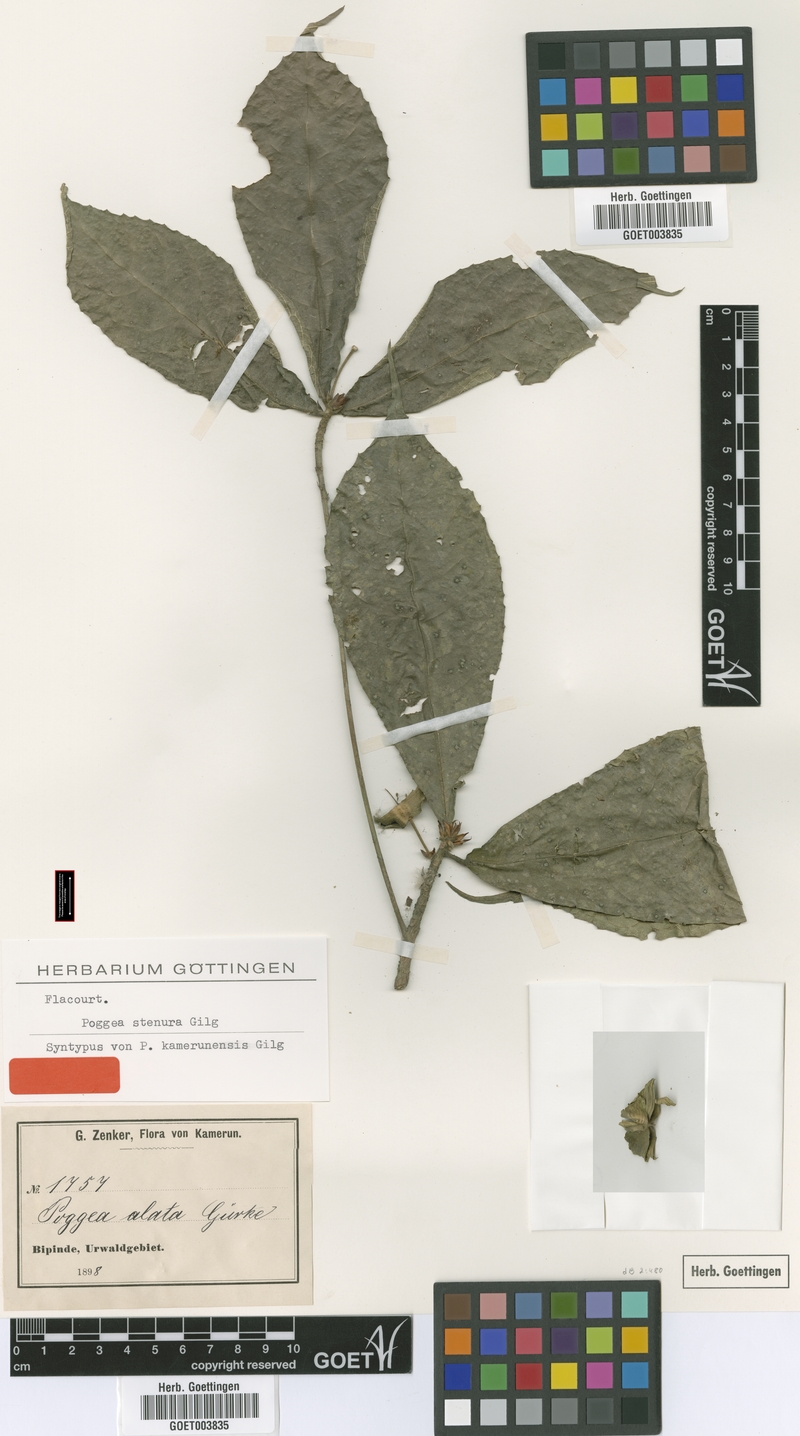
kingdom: Plantae
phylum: Tracheophyta
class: Magnoliopsida
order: Malpighiales
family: Achariaceae
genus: Poggea
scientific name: Poggea alata
